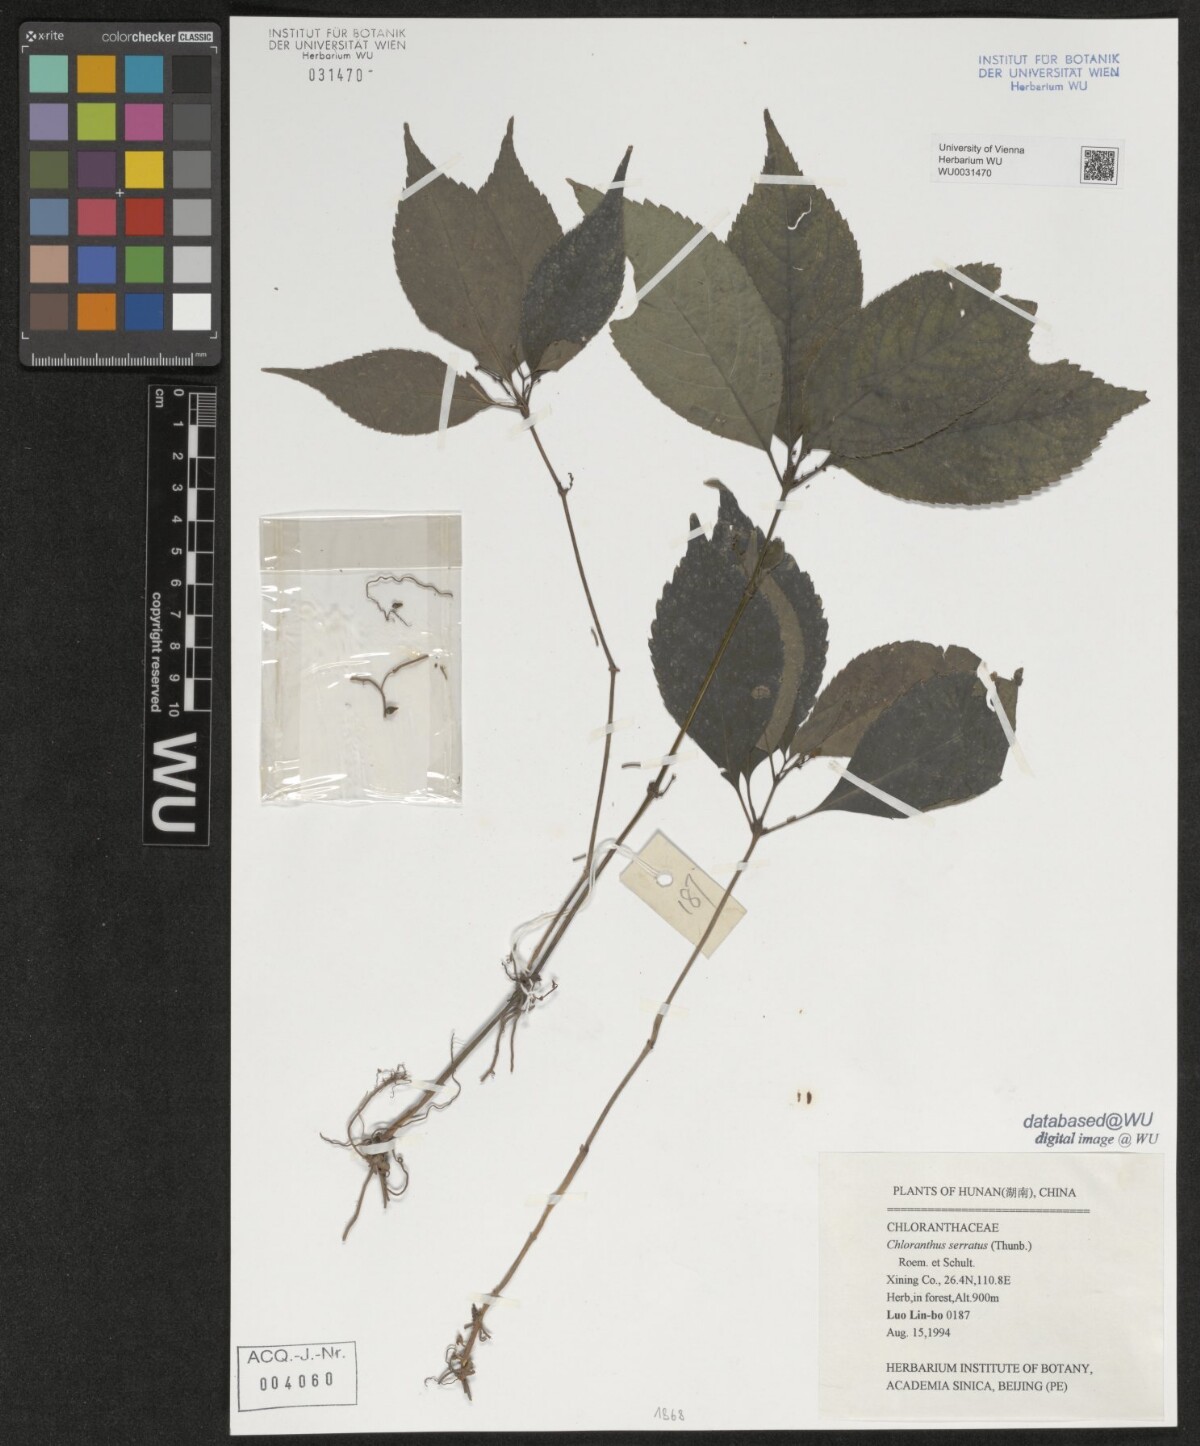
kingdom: Plantae
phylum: Tracheophyta
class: Magnoliopsida
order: Chloranthales
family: Chloranthaceae
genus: Chloranthus
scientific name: Chloranthus serratus
